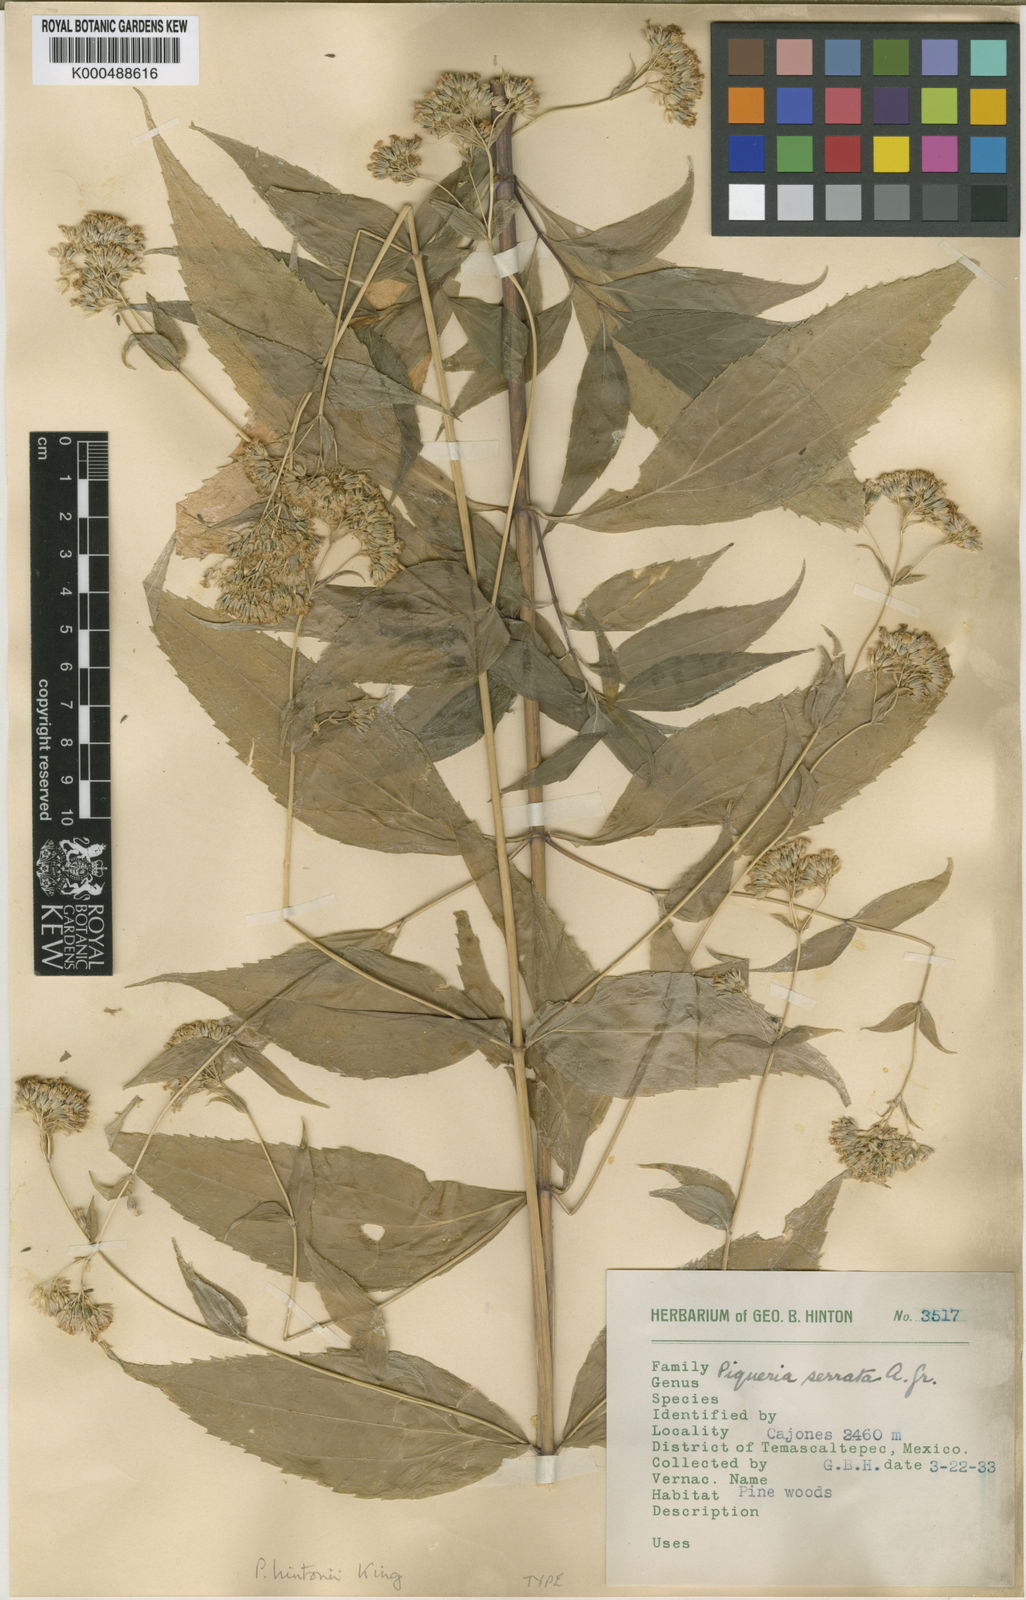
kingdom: Plantae
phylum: Tracheophyta
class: Magnoliopsida
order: Asterales
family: Asteraceae
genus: Piqueria
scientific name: Piqueria pilosa
